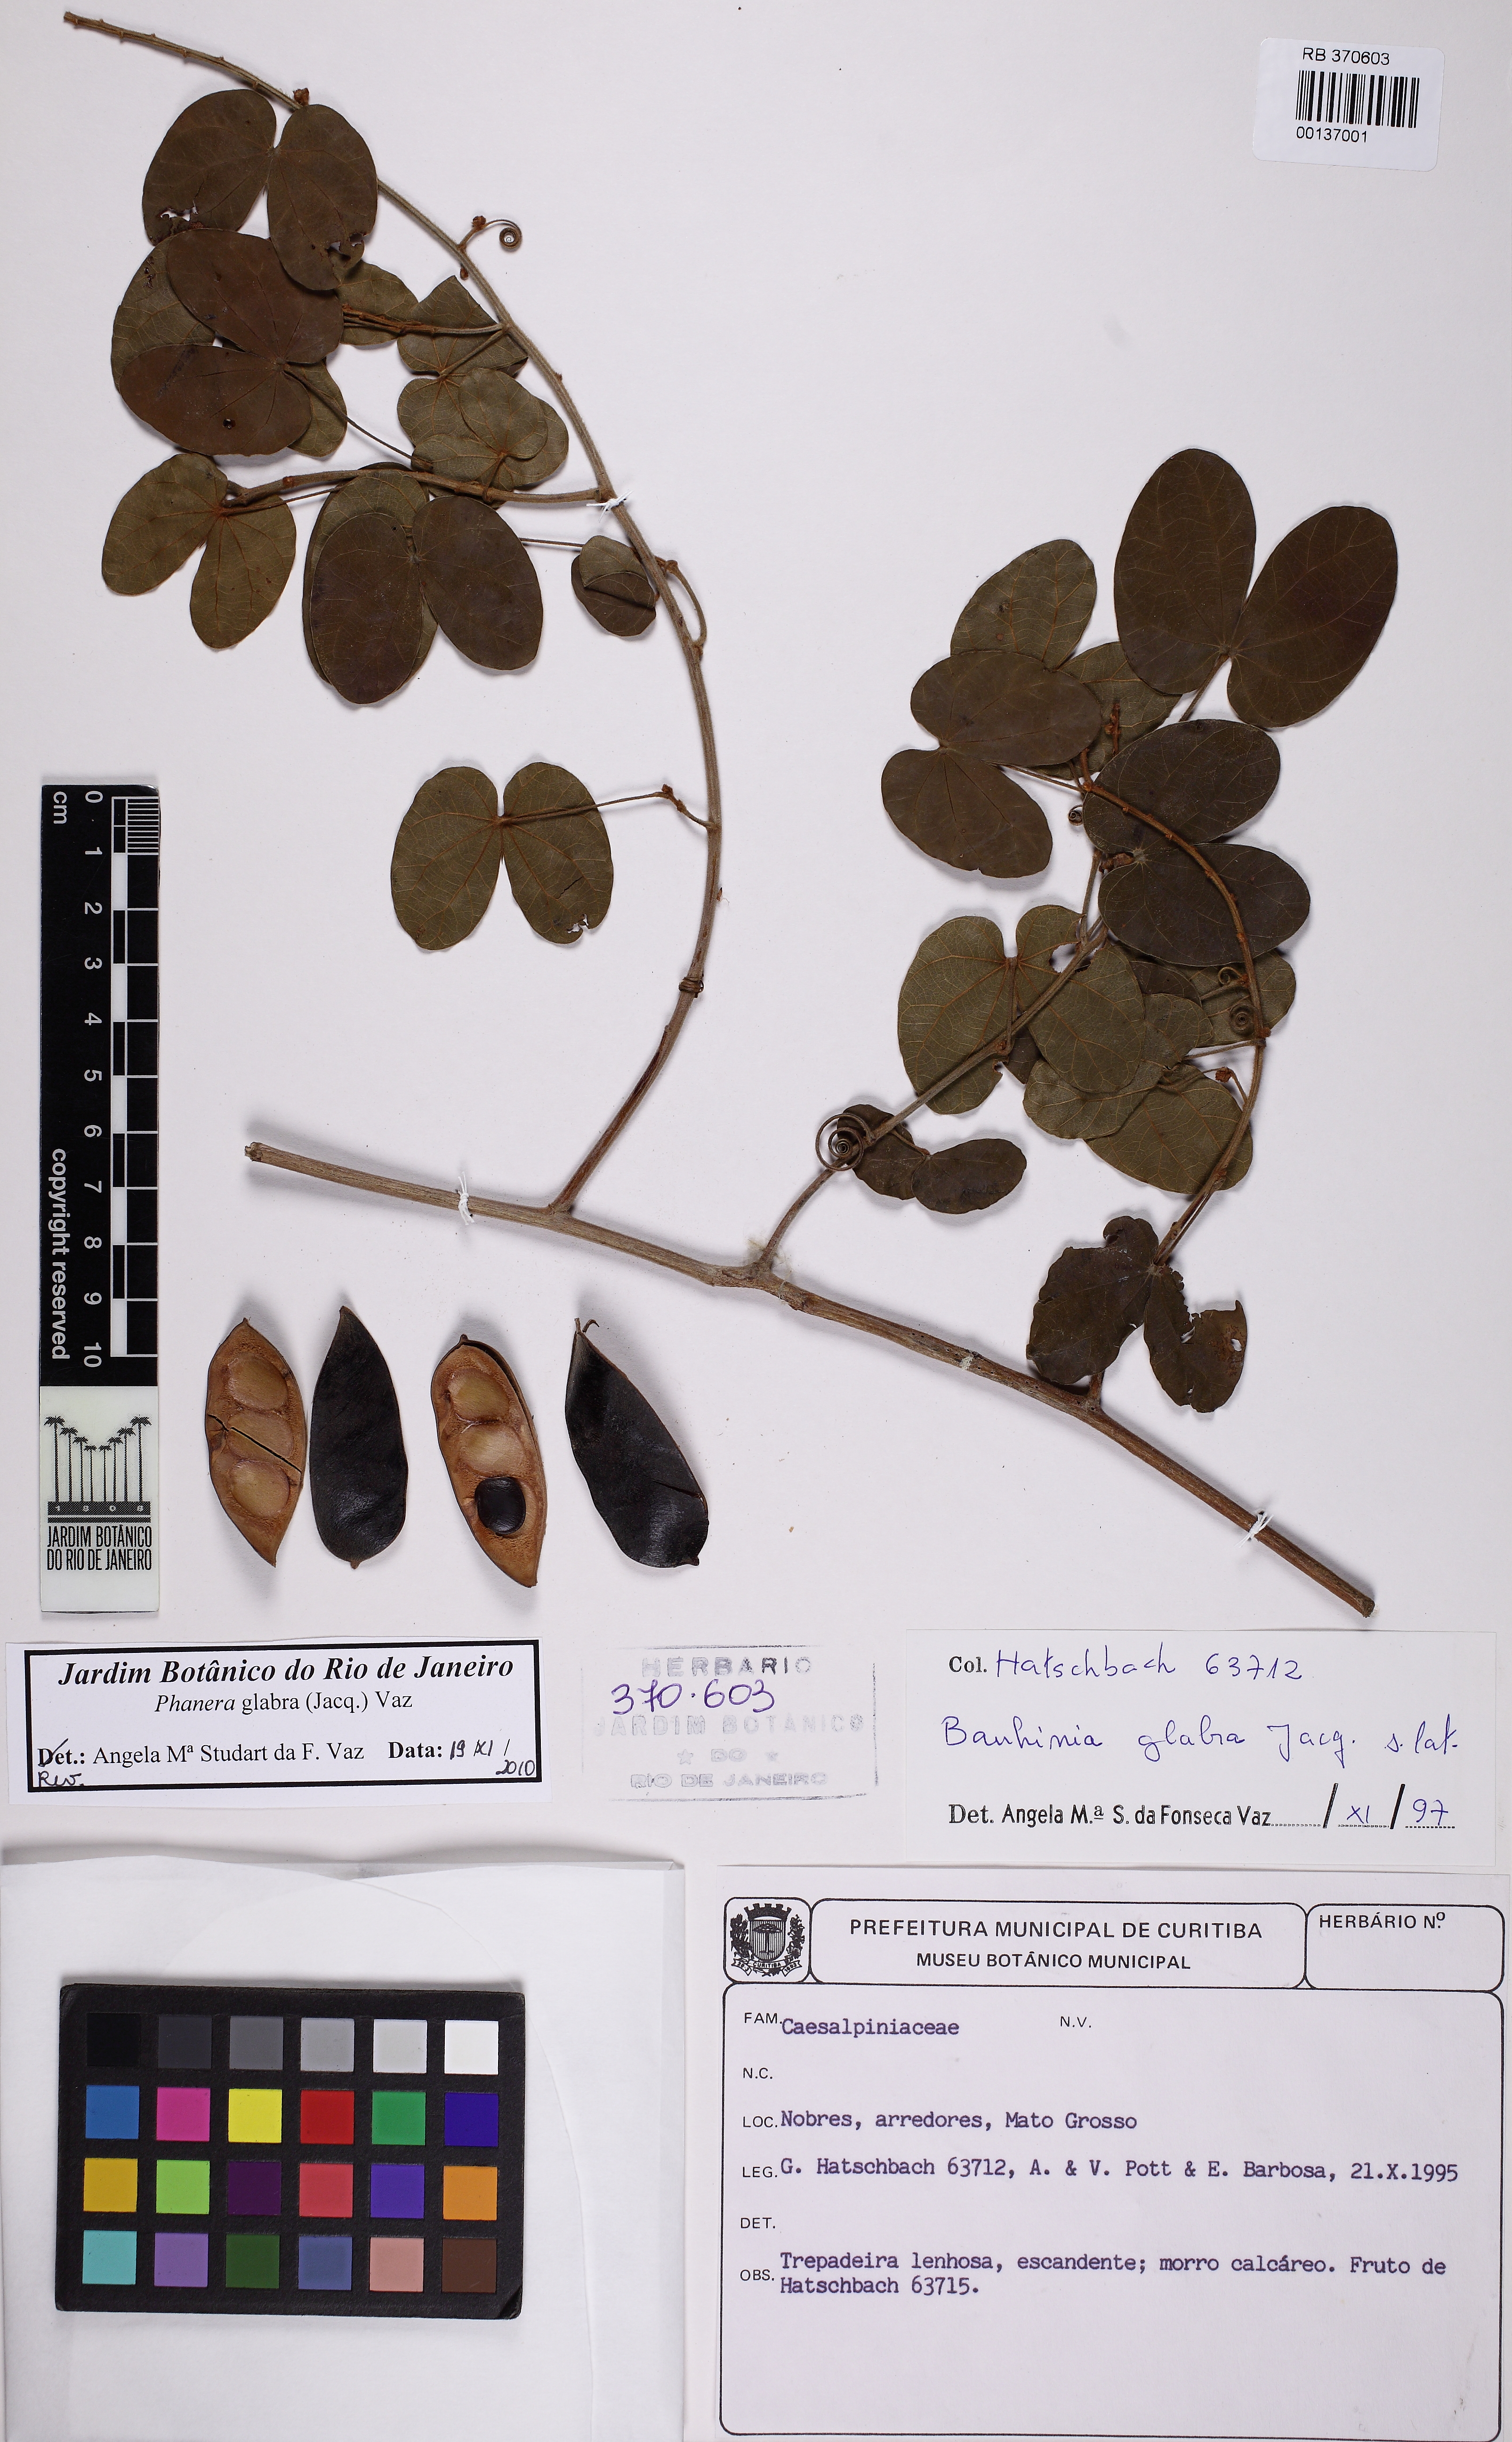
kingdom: Plantae
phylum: Tracheophyta
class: Magnoliopsida
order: Fabales
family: Fabaceae
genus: Schnella
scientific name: Schnella glabra
